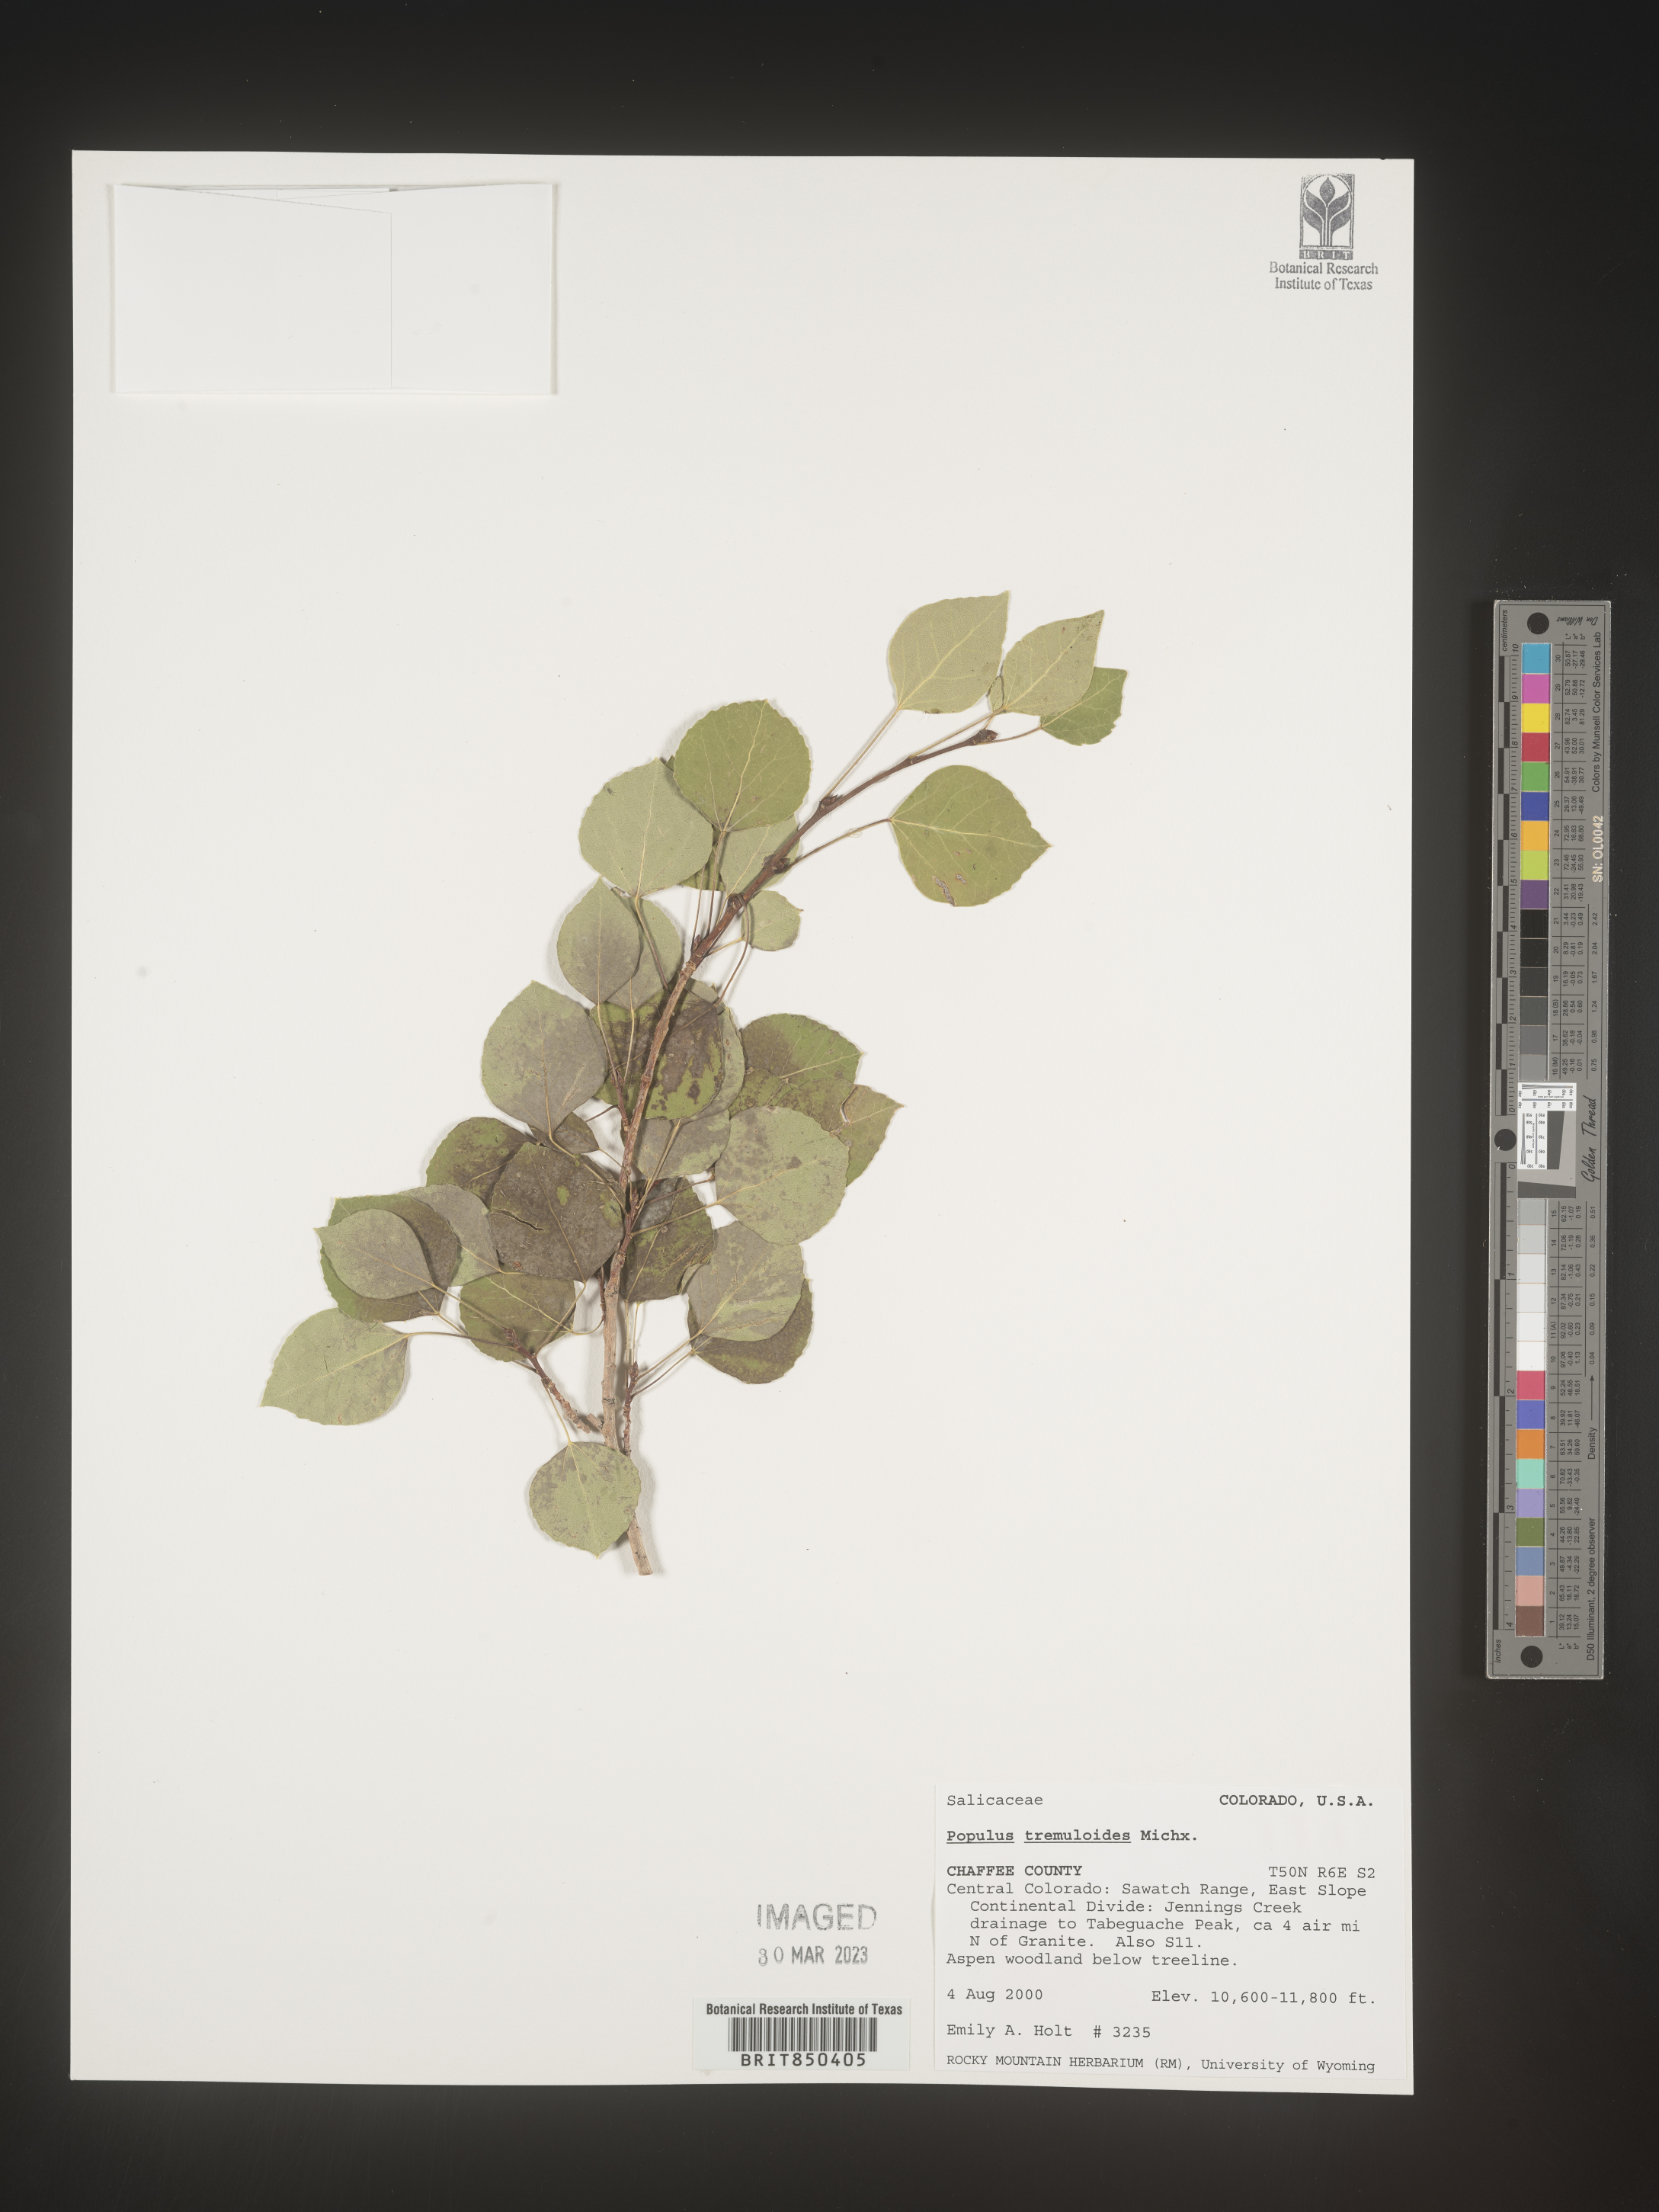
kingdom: Plantae
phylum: Tracheophyta
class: Magnoliopsida
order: Malpighiales
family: Salicaceae
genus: Populus
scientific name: Populus tremuloides
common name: Quaking aspen
